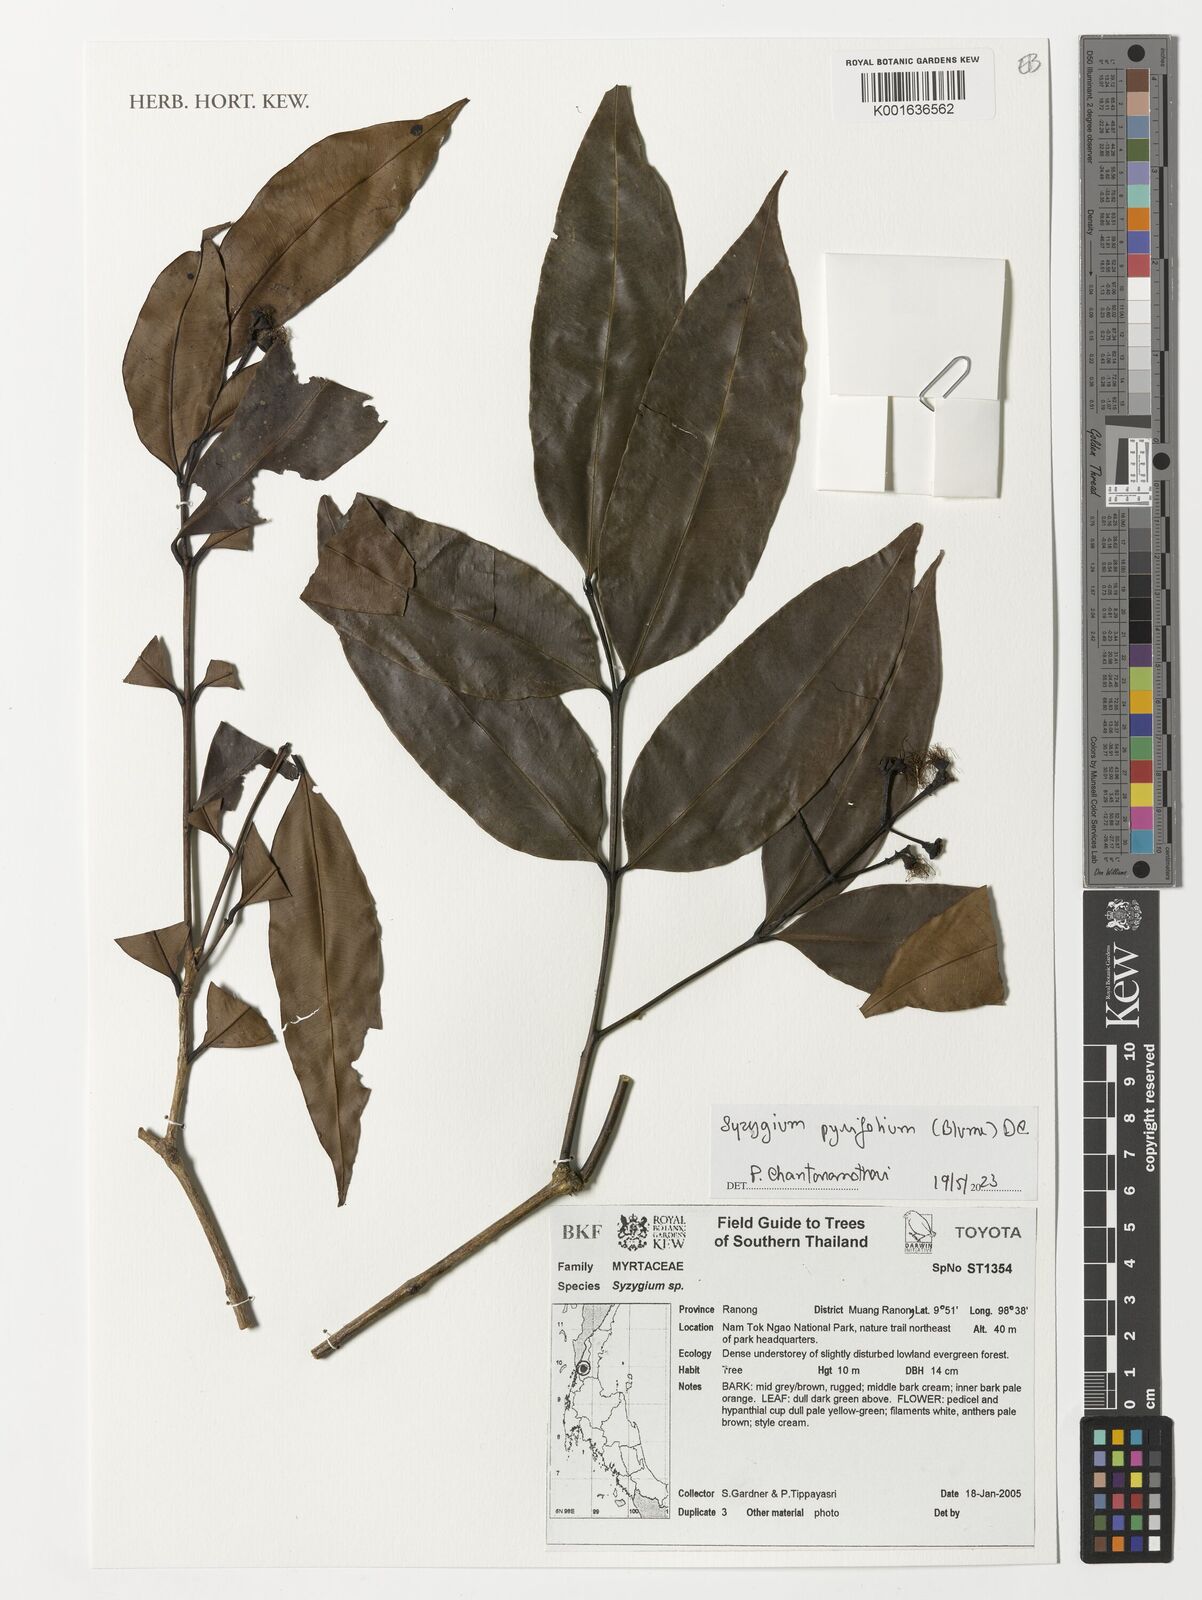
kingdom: Plantae
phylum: Tracheophyta
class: Magnoliopsida
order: Myrtales
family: Myrtaceae
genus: Syzygium
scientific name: Syzygium pyrifolium
